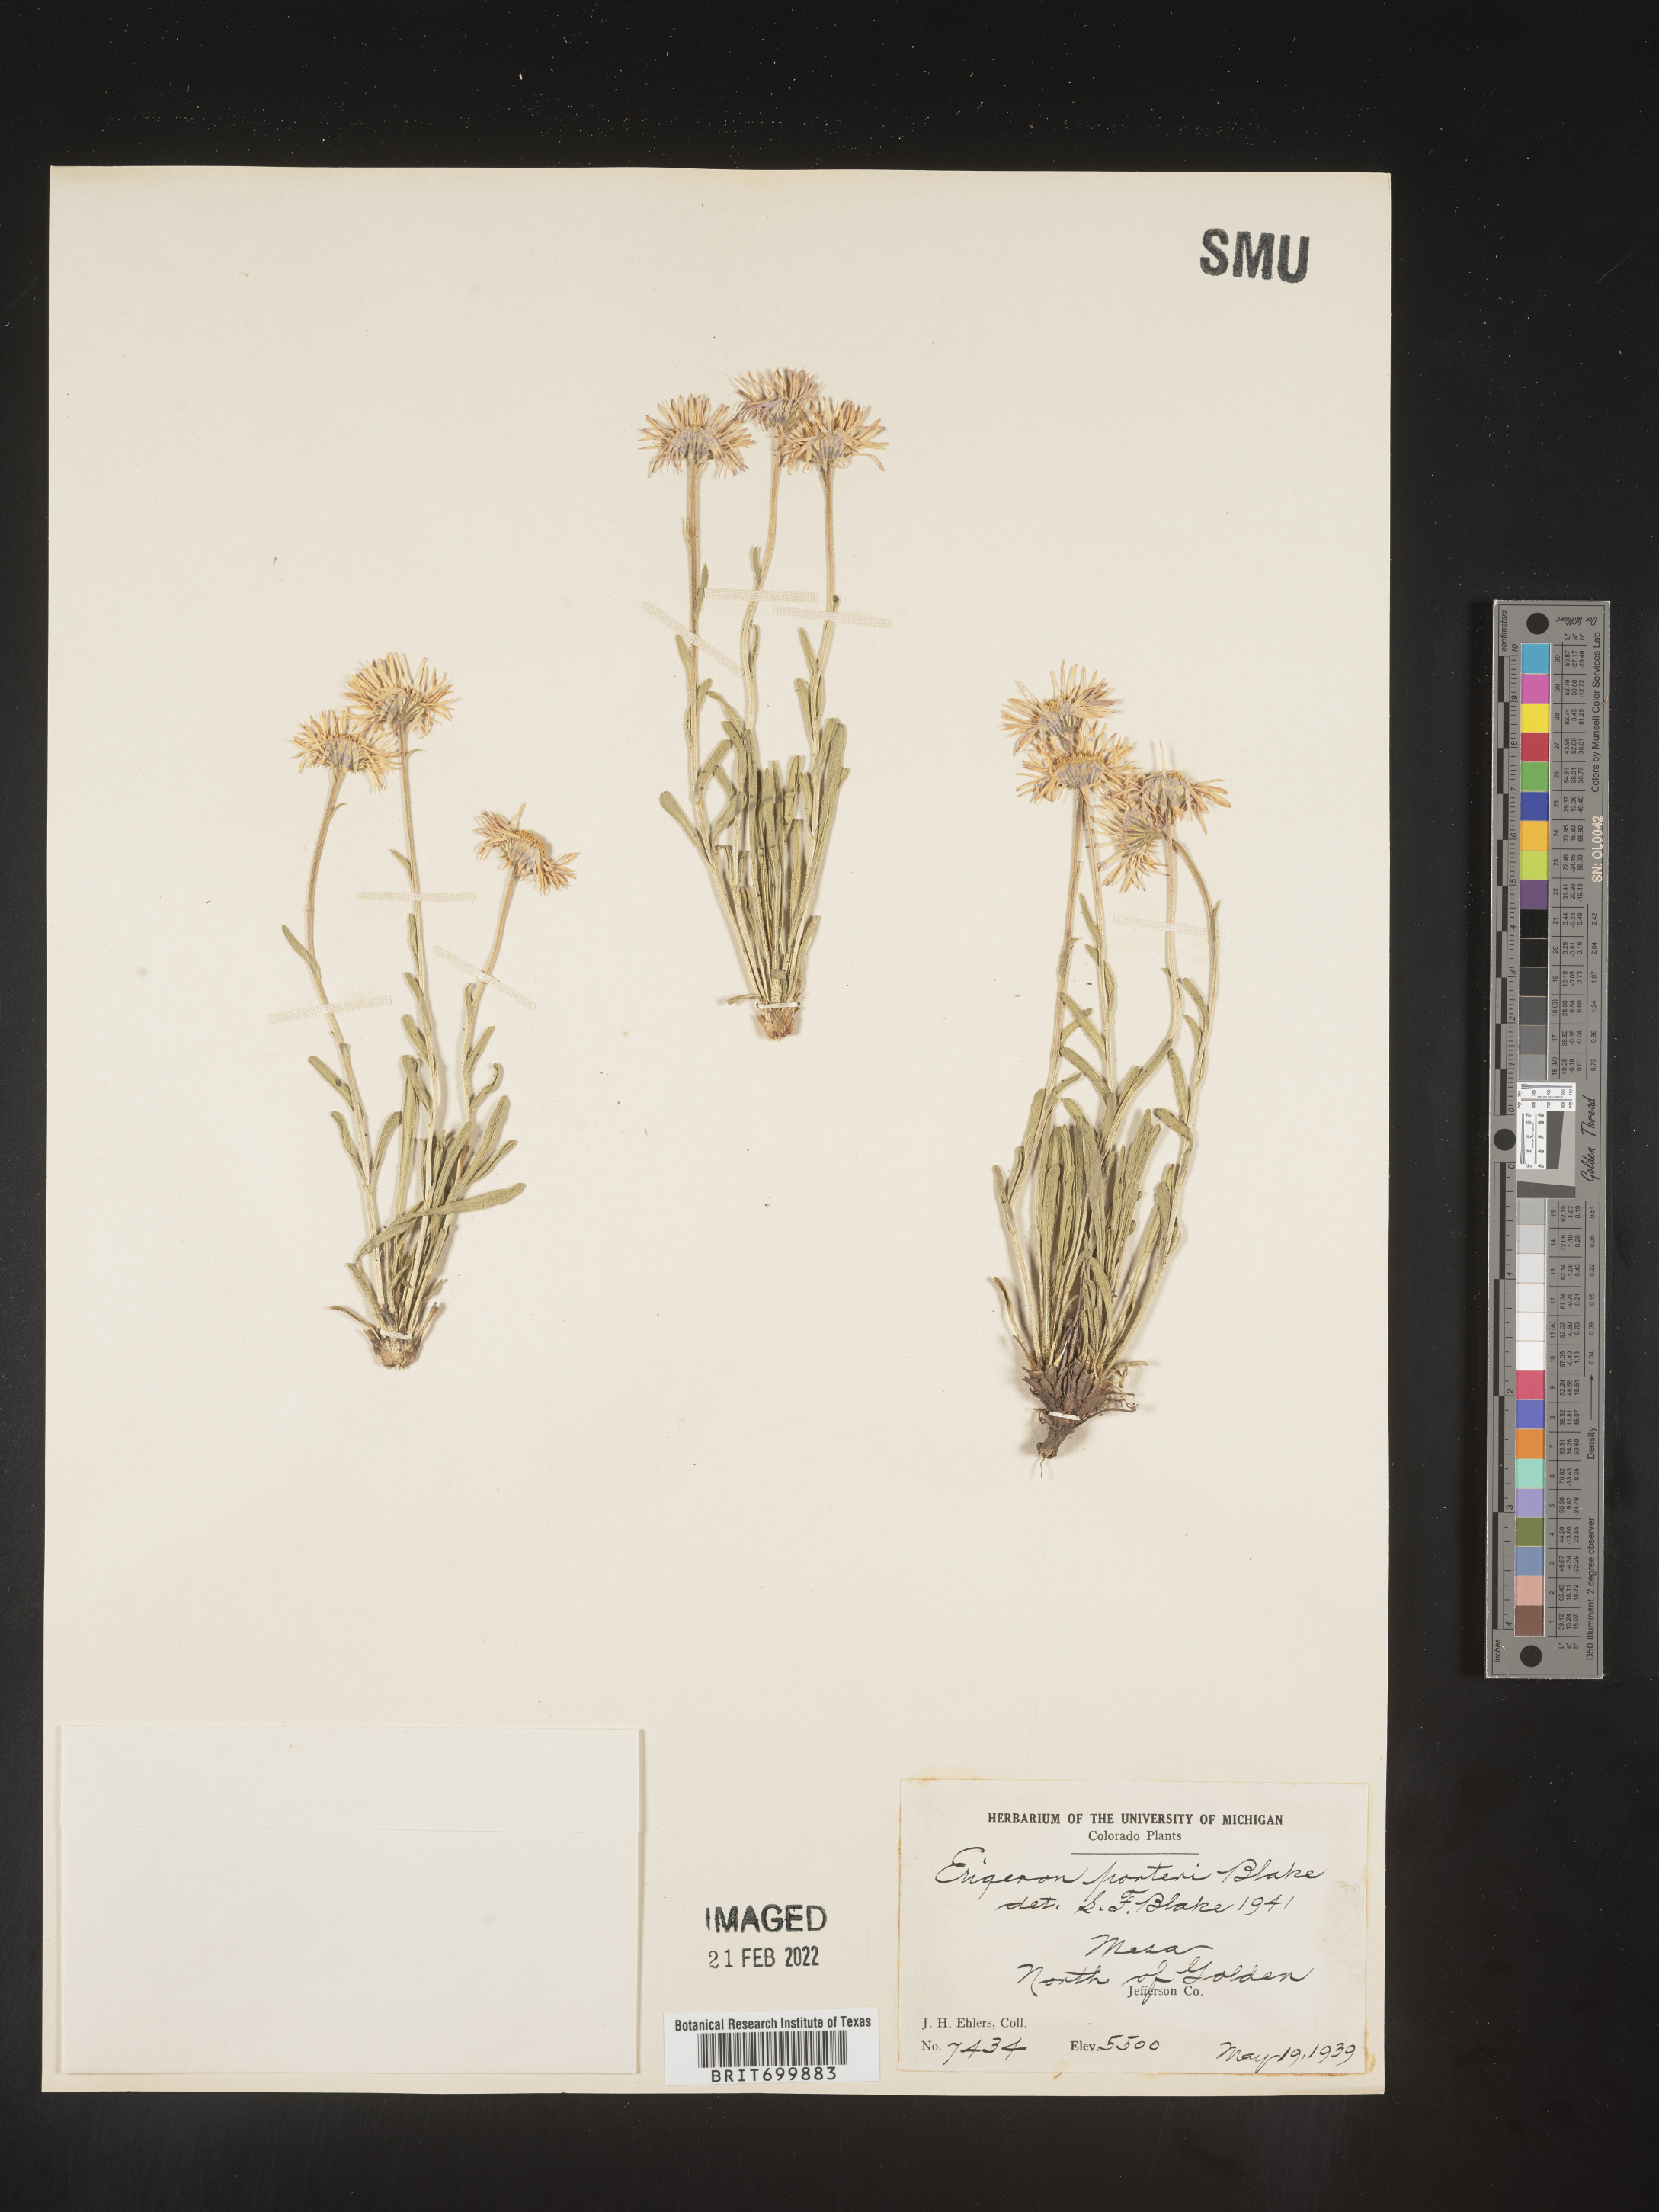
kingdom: Plantae
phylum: Tracheophyta
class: Magnoliopsida
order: Asterales
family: Asteraceae
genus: Erigeron
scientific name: Erigeron vetensis
